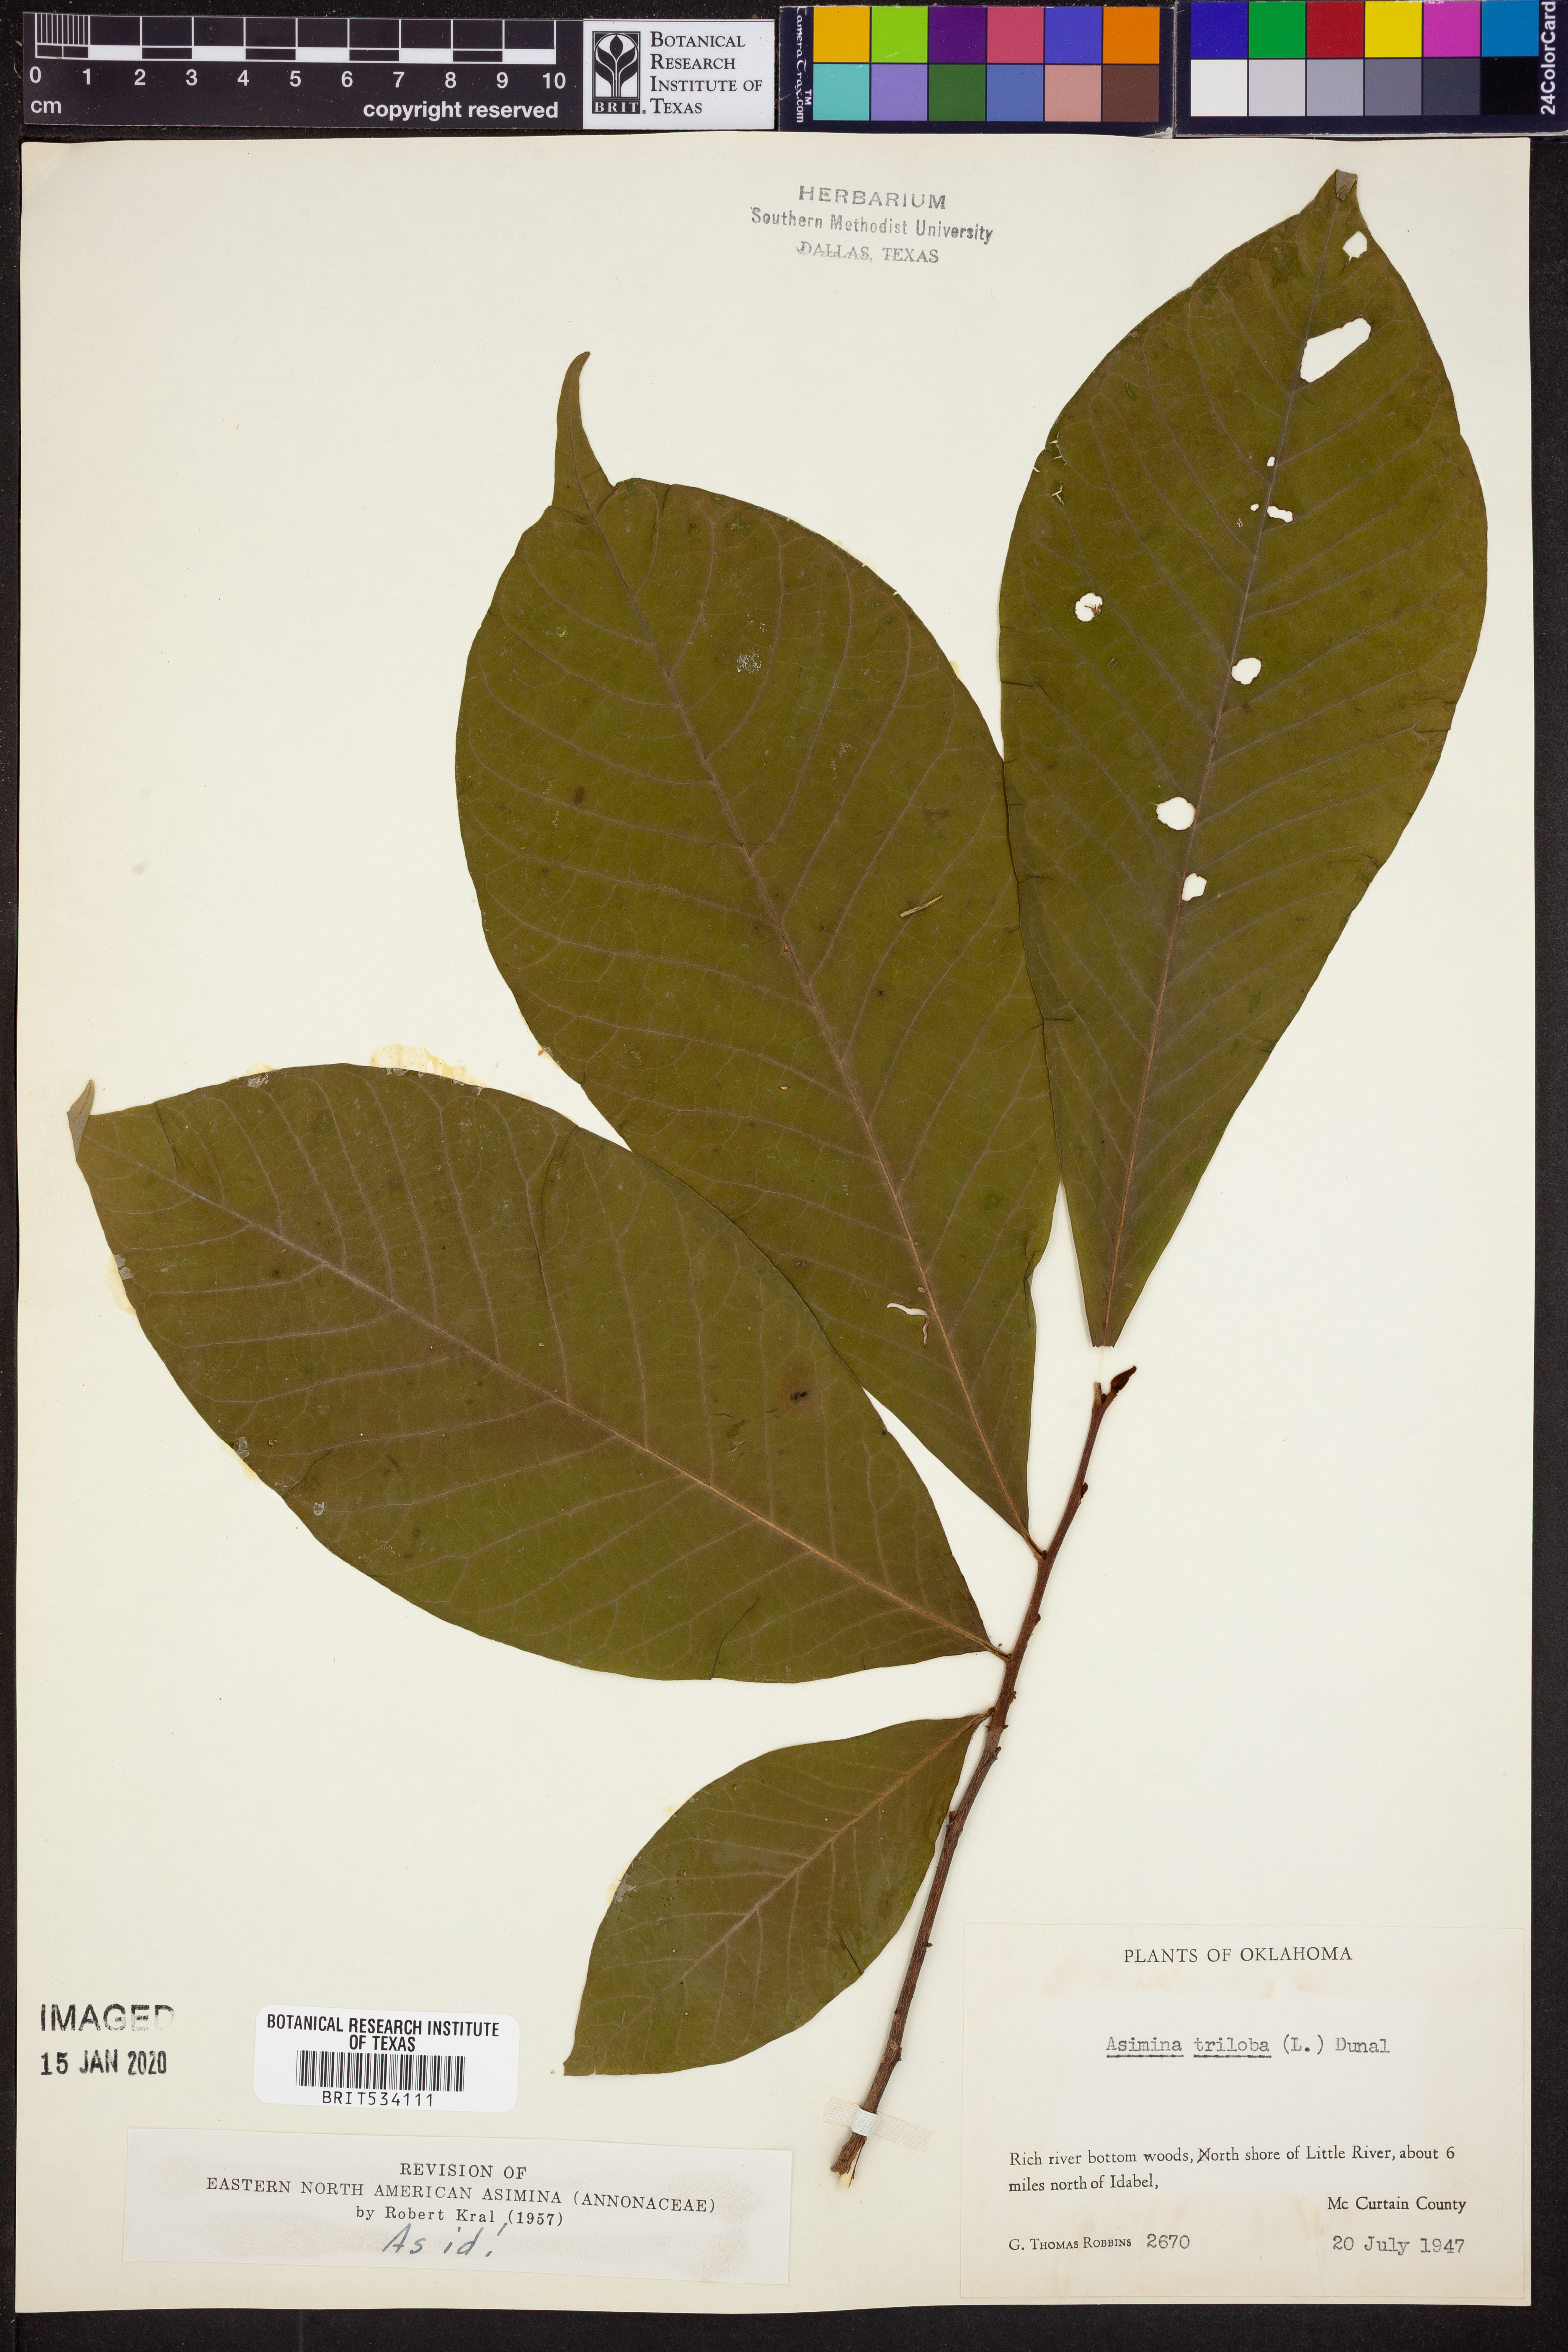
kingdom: Plantae
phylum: Tracheophyta
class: Magnoliopsida
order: Magnoliales
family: Annonaceae
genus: Asimina
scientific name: Asimina triloba
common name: Dog-banana
